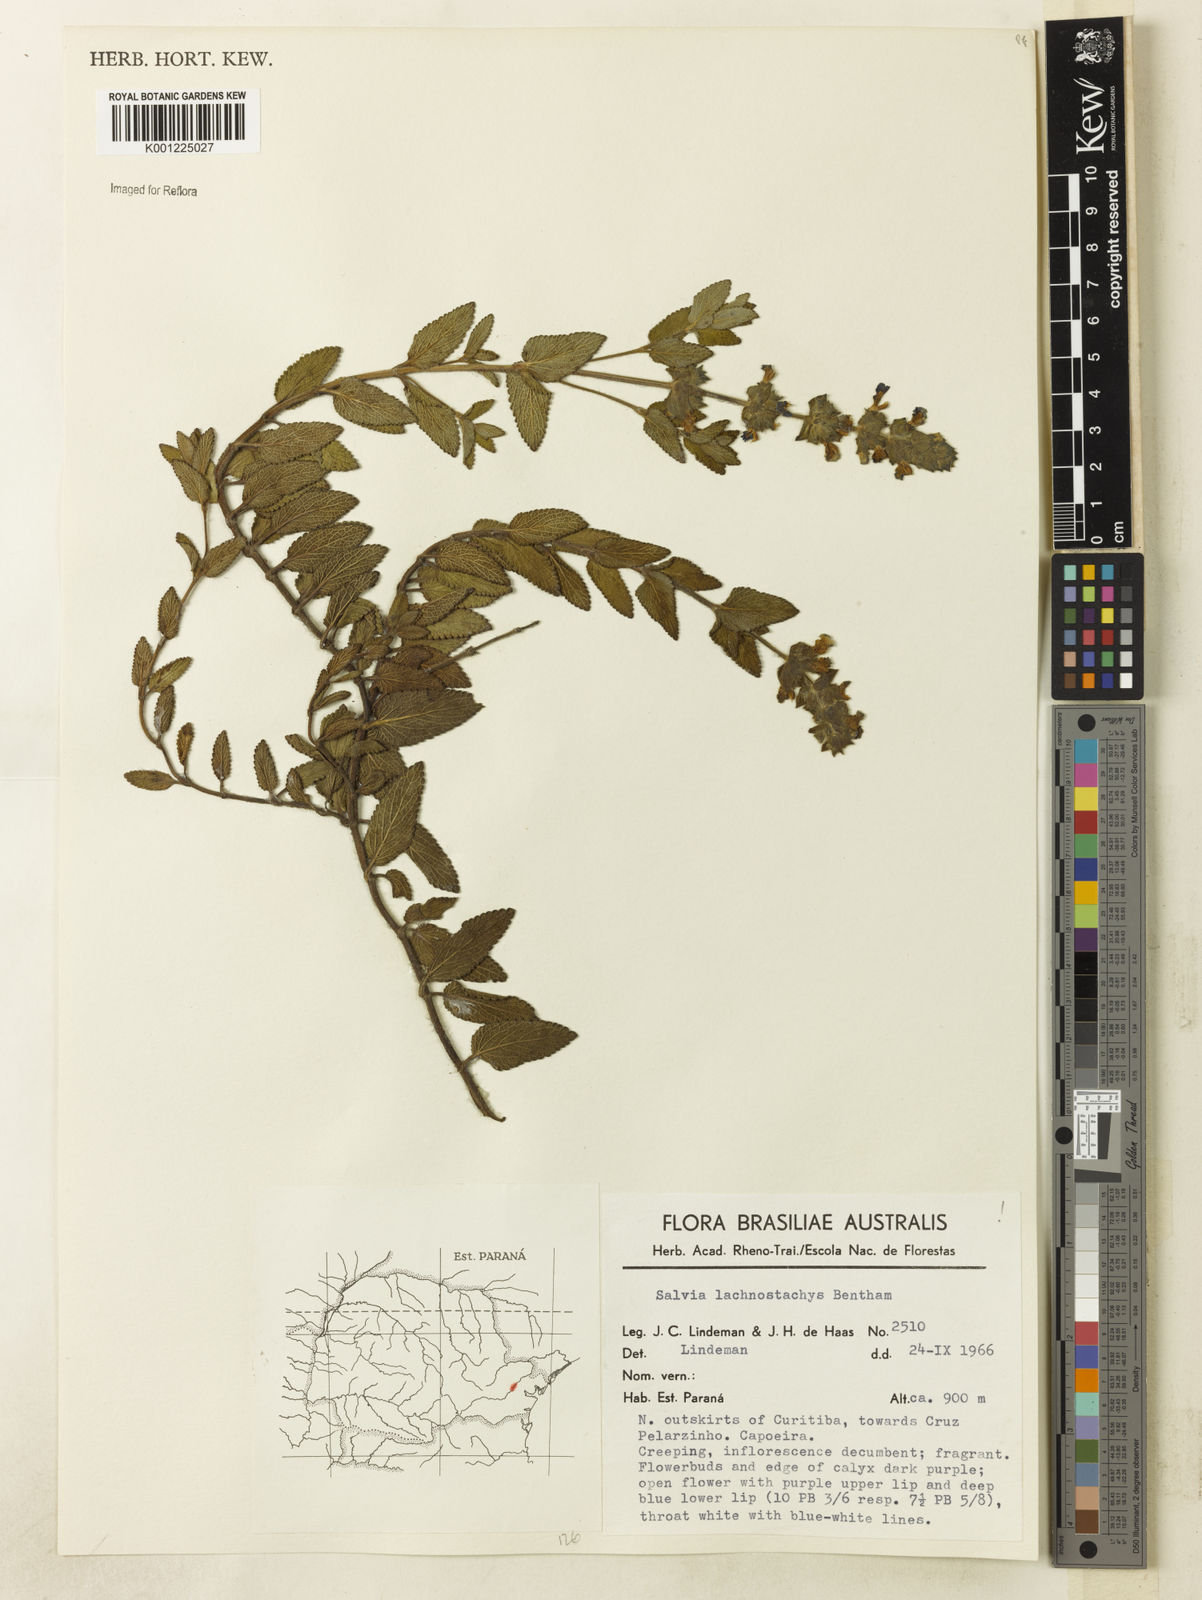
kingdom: Plantae
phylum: Tracheophyta
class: Magnoliopsida
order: Lamiales
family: Lamiaceae
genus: Salvia
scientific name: Salvia lachnostachys
